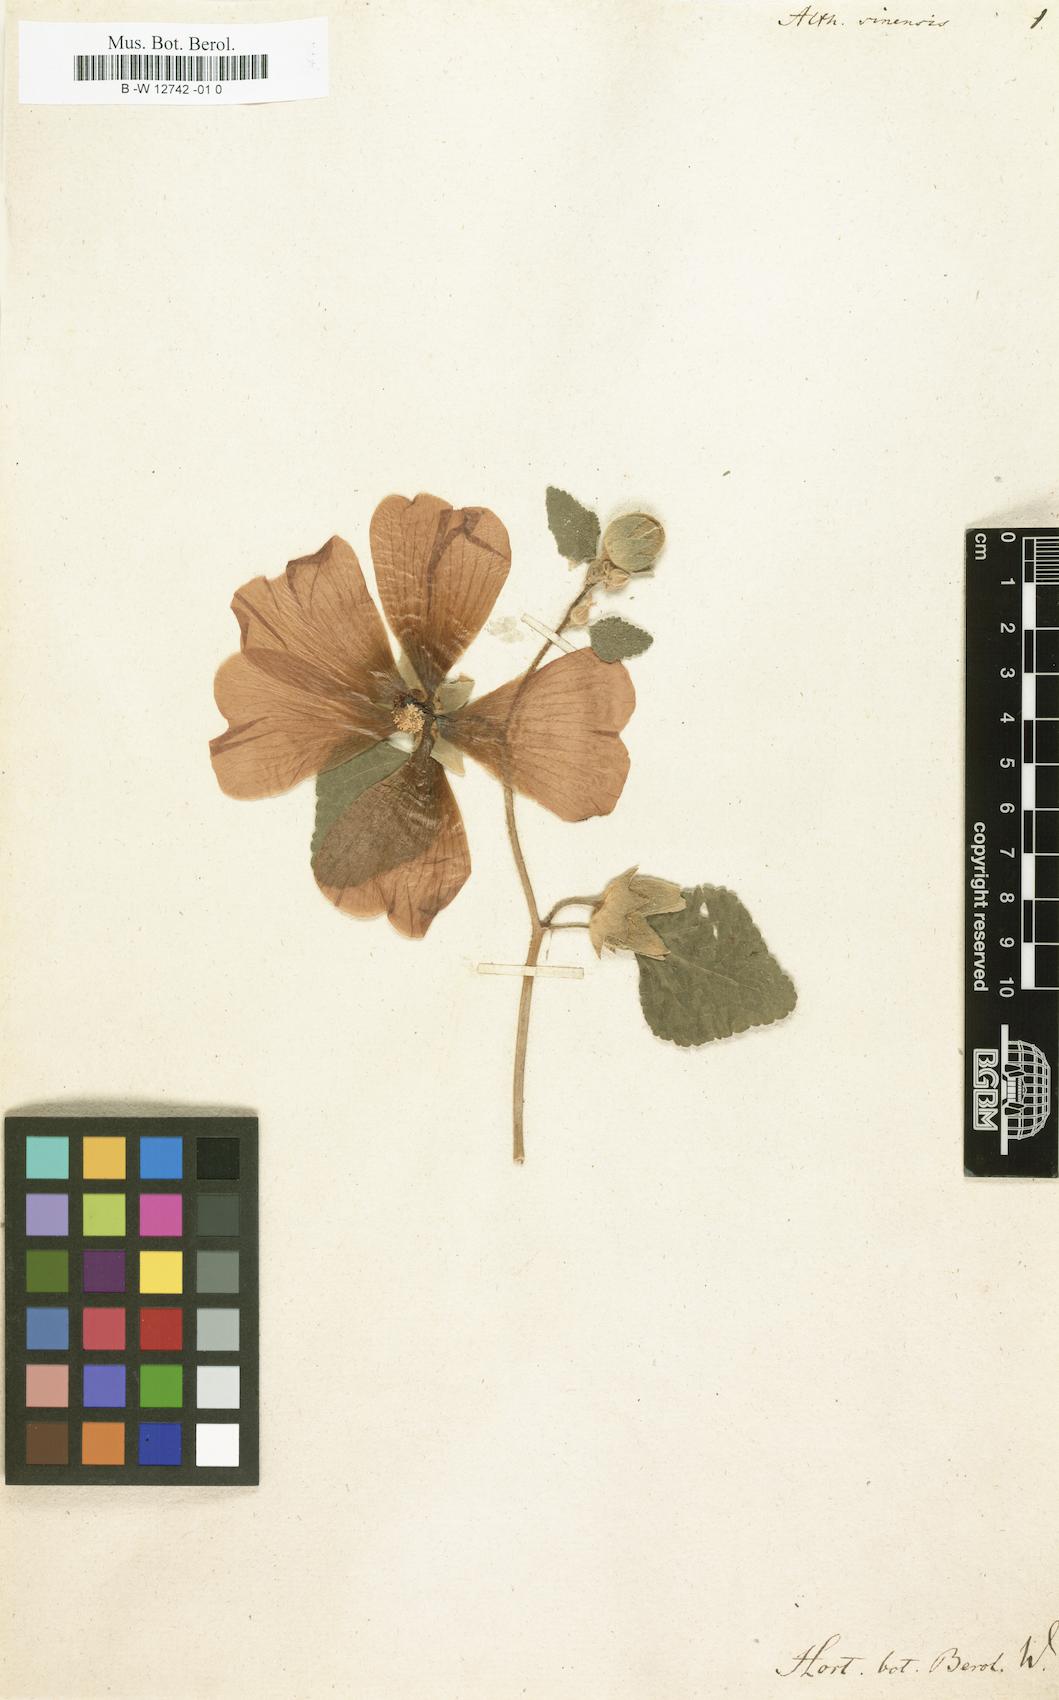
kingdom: Plantae
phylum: Tracheophyta
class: Magnoliopsida
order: Malvales
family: Malvaceae
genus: Alcea
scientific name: Alcea rosea
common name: Hollyhock
